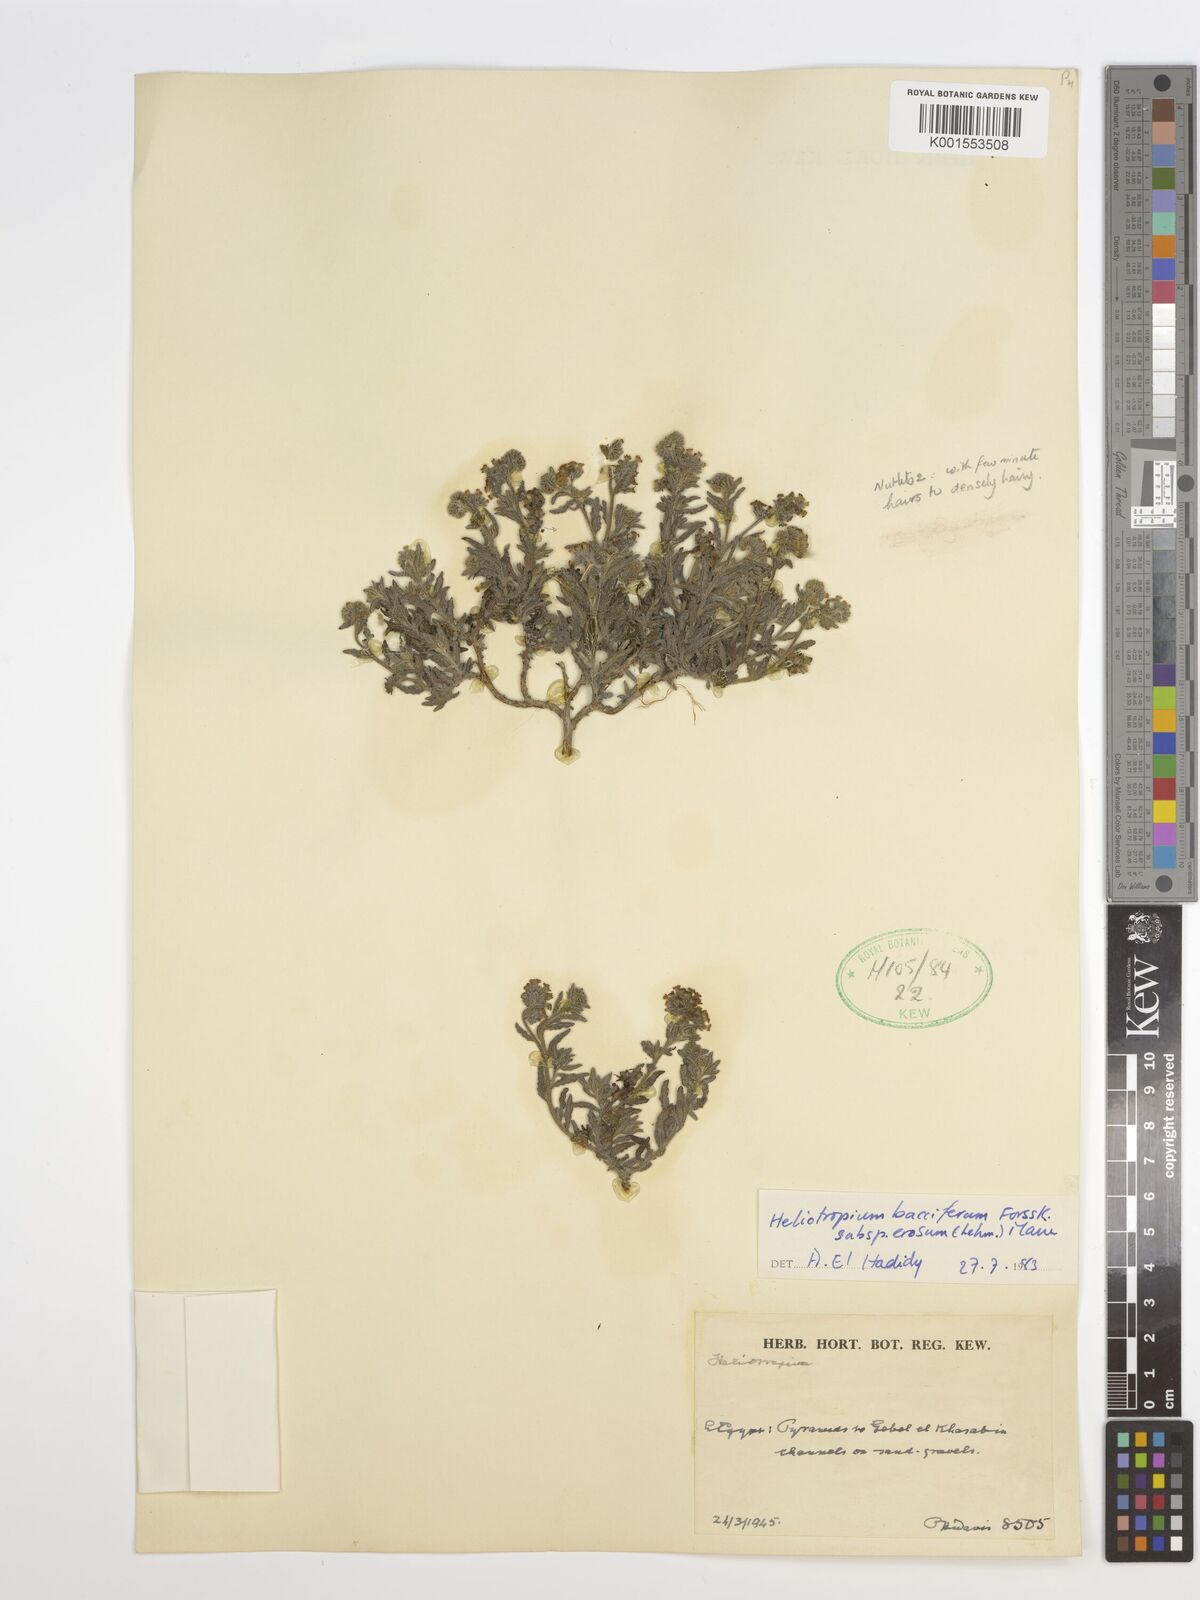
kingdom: Plantae
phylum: Tracheophyta
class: Magnoliopsida
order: Boraginales
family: Heliotropiaceae
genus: Heliotropium
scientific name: Heliotropium crispum
